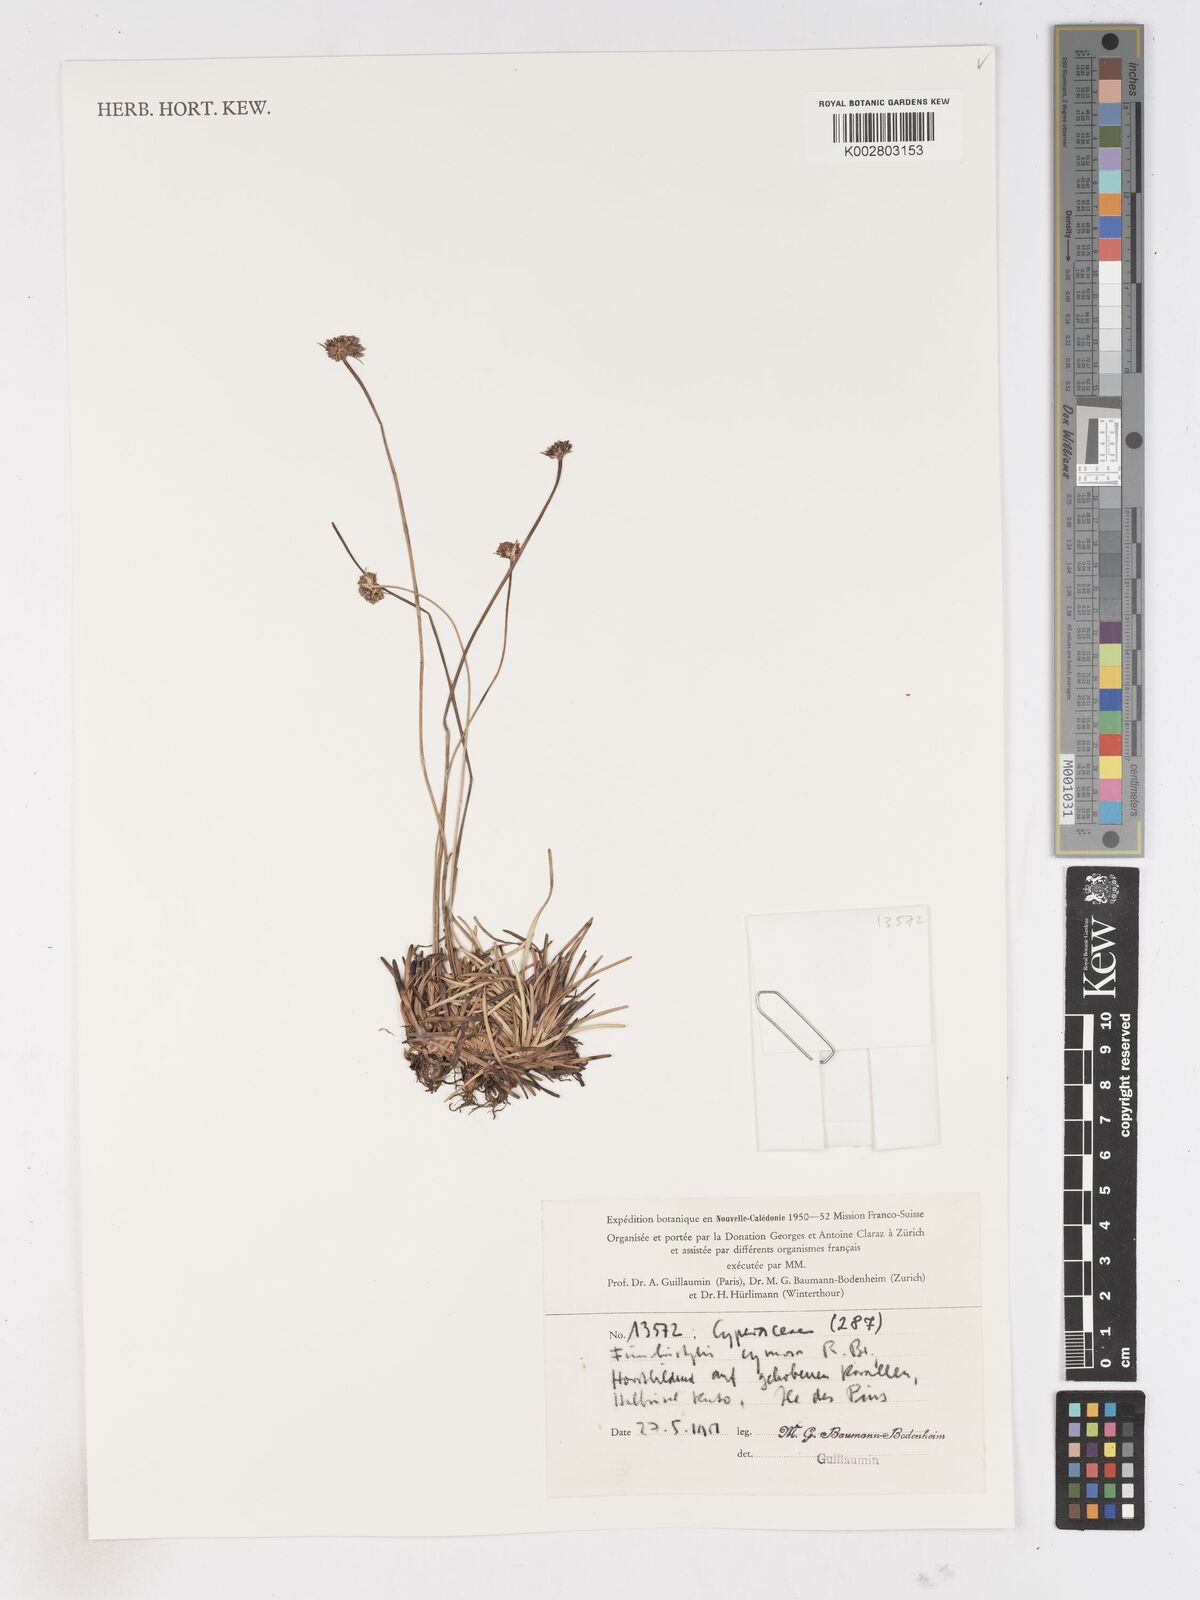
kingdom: Plantae
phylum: Tracheophyta
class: Liliopsida
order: Poales
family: Cyperaceae
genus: Fimbristylis
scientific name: Fimbristylis cymosa
